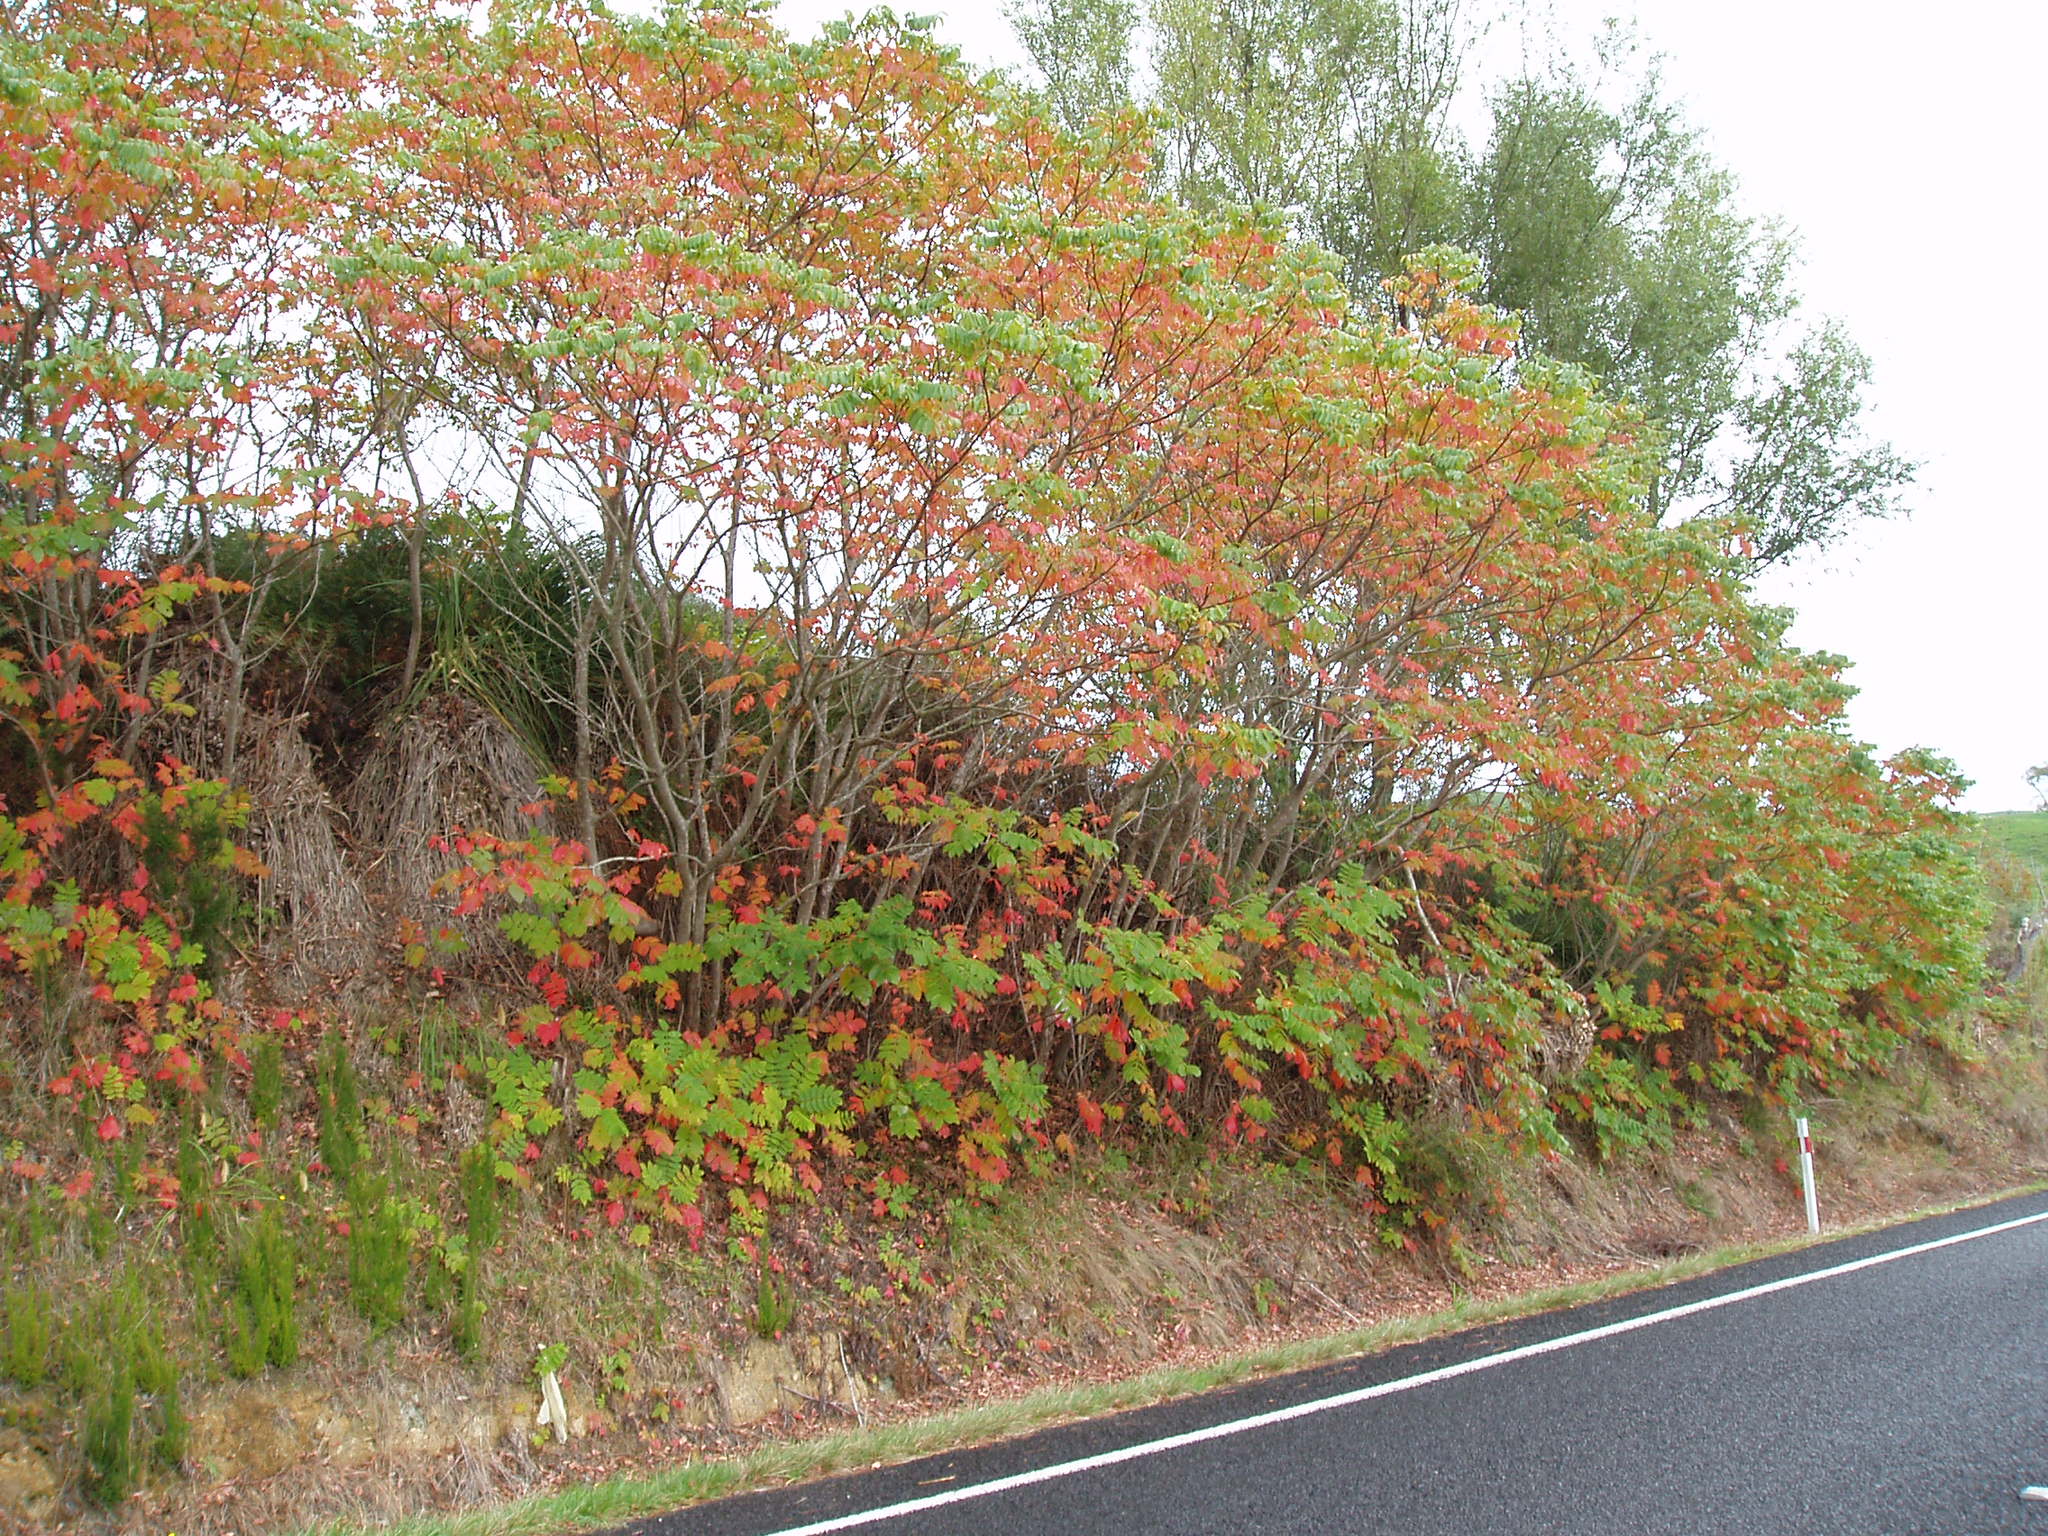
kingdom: Plantae
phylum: Tracheophyta
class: Magnoliopsida
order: Sapindales
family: Anacardiaceae
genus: Rhus
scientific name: Rhus chinensis
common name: Chinese gall
